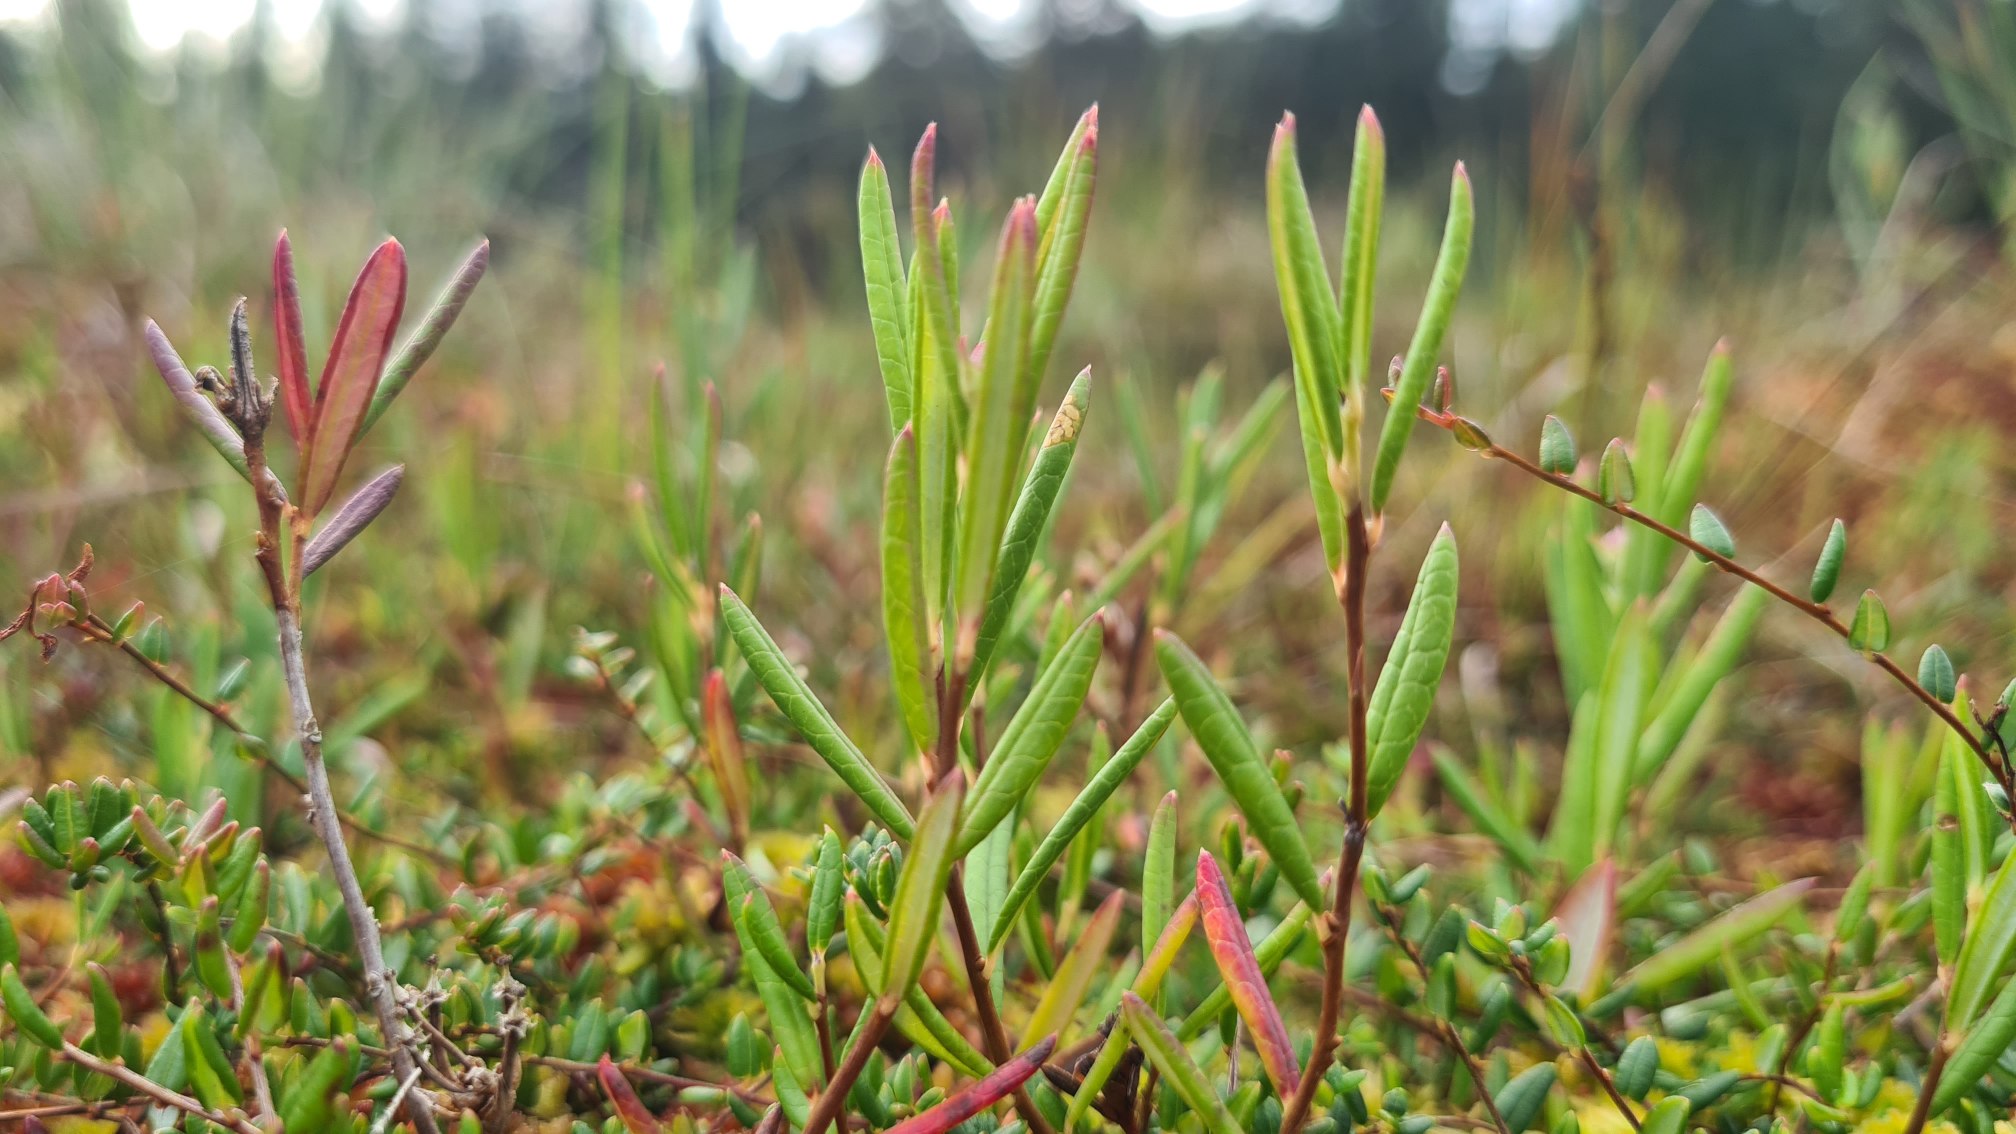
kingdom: Plantae
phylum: Tracheophyta
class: Magnoliopsida
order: Ericales
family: Ericaceae
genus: Andromeda
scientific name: Andromeda polifolia
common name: Rosmarinlyng
